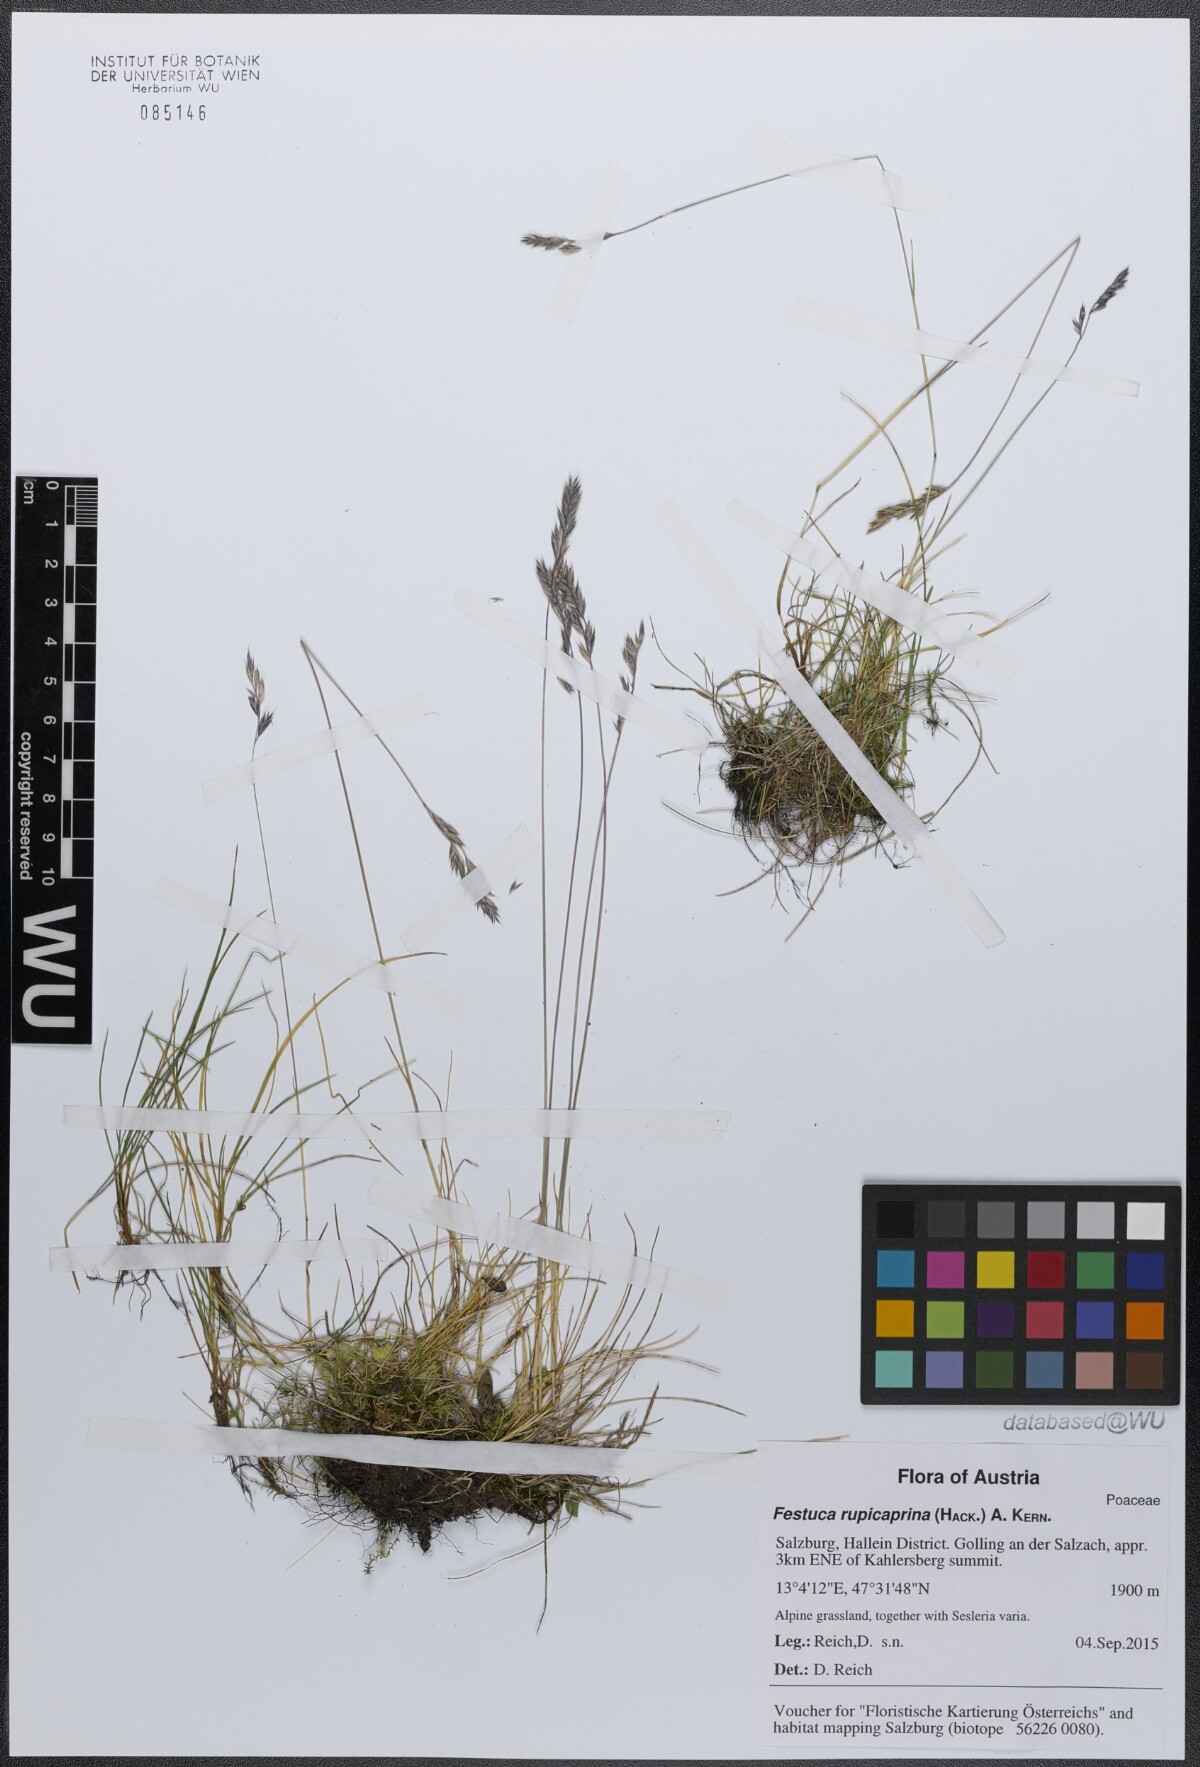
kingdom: Plantae
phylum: Tracheophyta
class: Liliopsida
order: Poales
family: Poaceae
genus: Festuca
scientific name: Festuca rupicaprina
